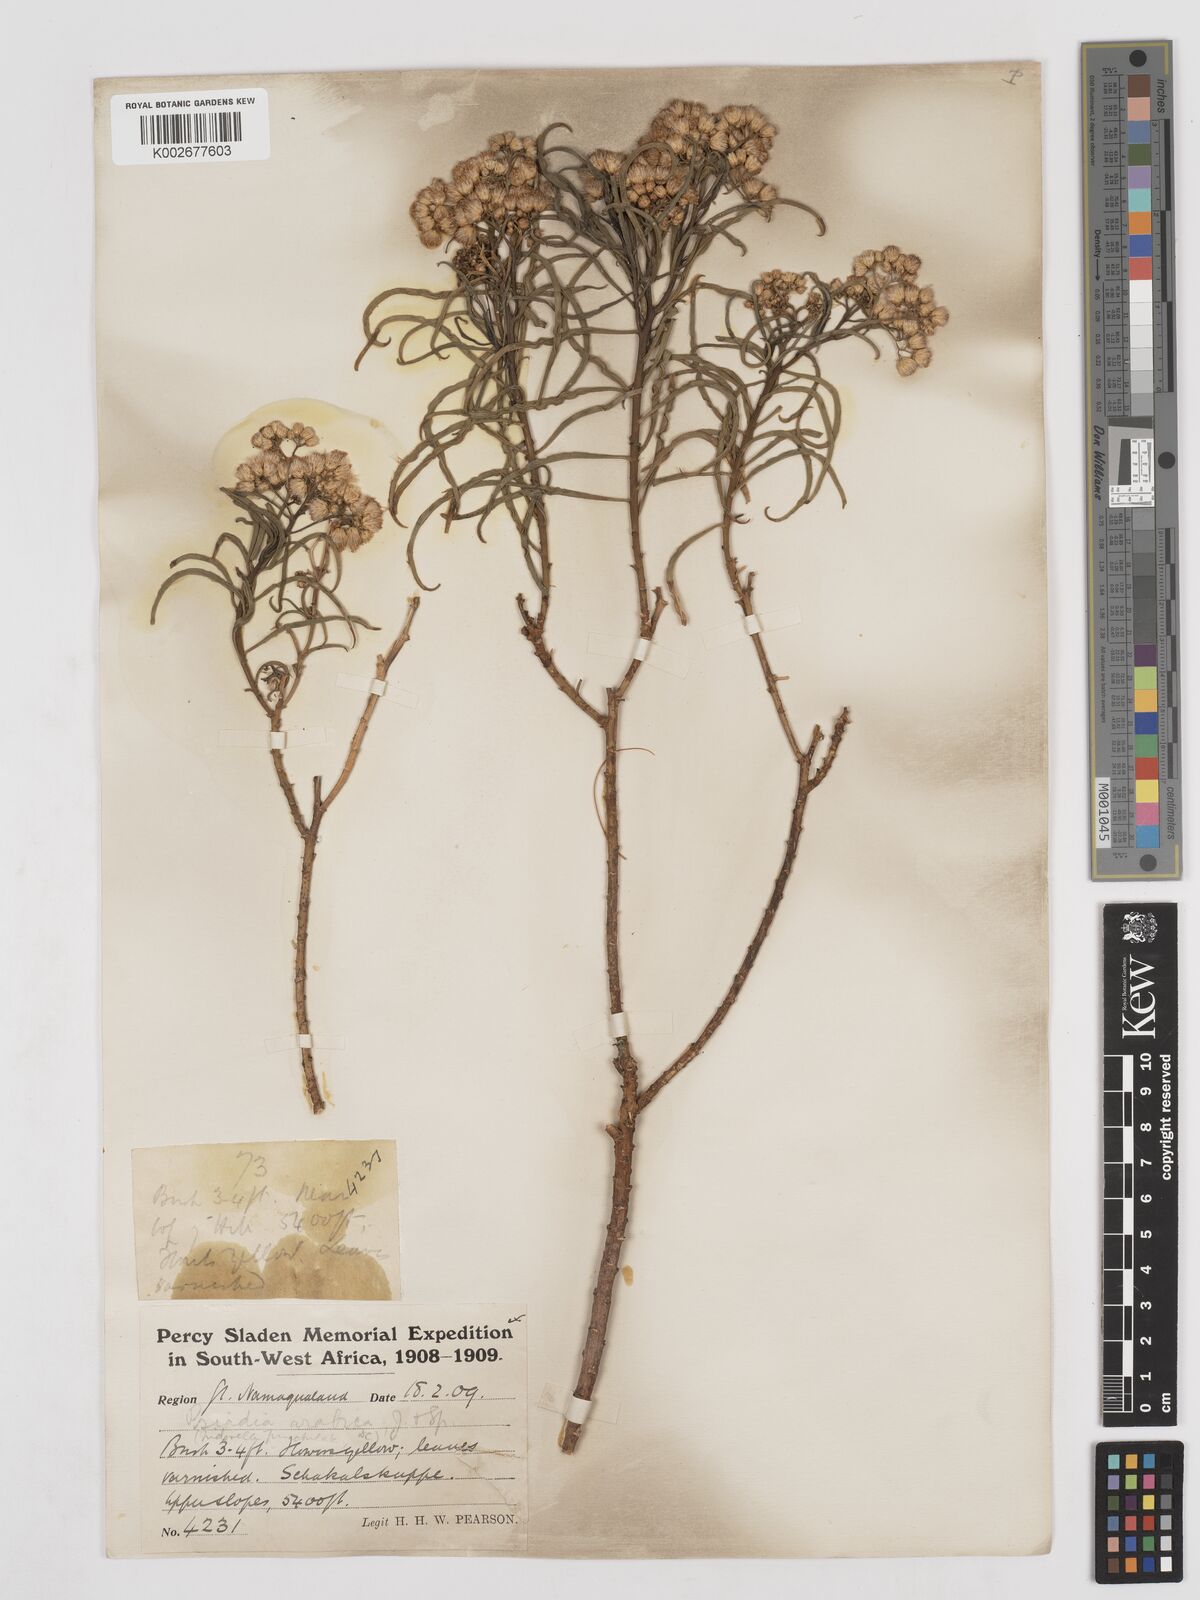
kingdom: Plantae
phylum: Tracheophyta
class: Magnoliopsida
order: Asterales
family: Asteraceae
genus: Psiadia
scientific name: Psiadia punctulata
